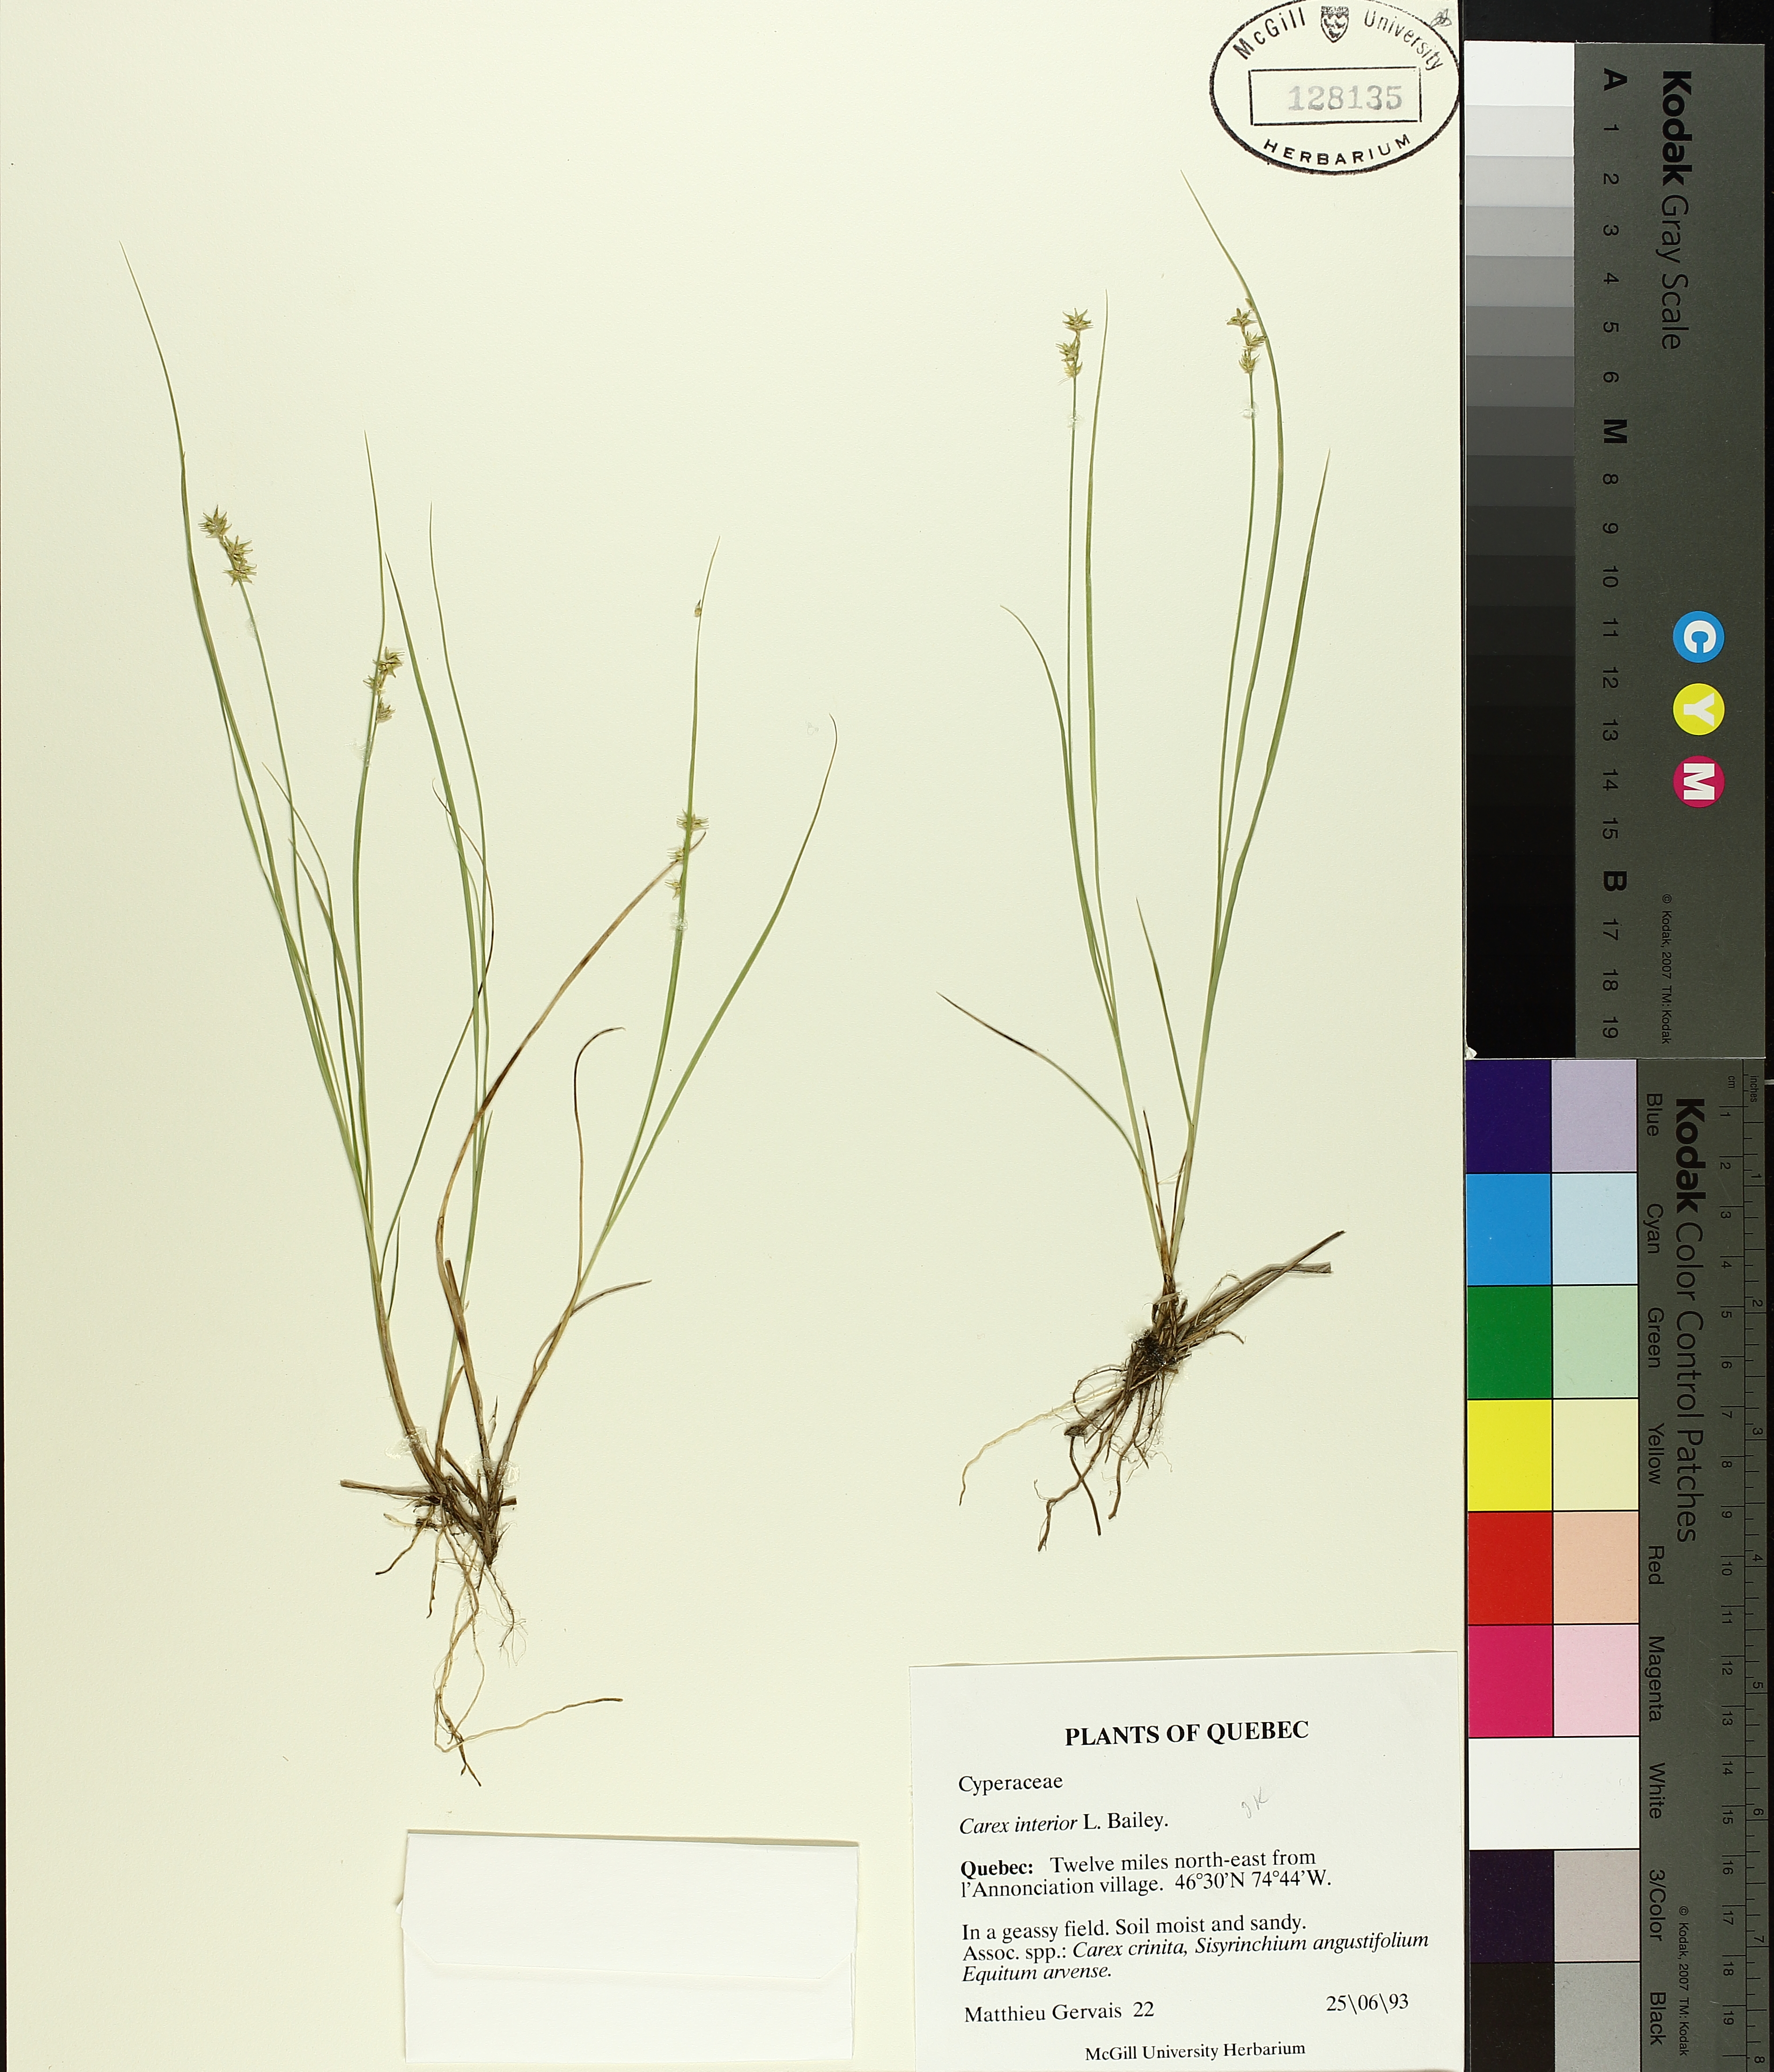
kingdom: Plantae
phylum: Tracheophyta
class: Liliopsida
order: Poales
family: Cyperaceae
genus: Carex
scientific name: Carex interior
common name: Inland sedge
